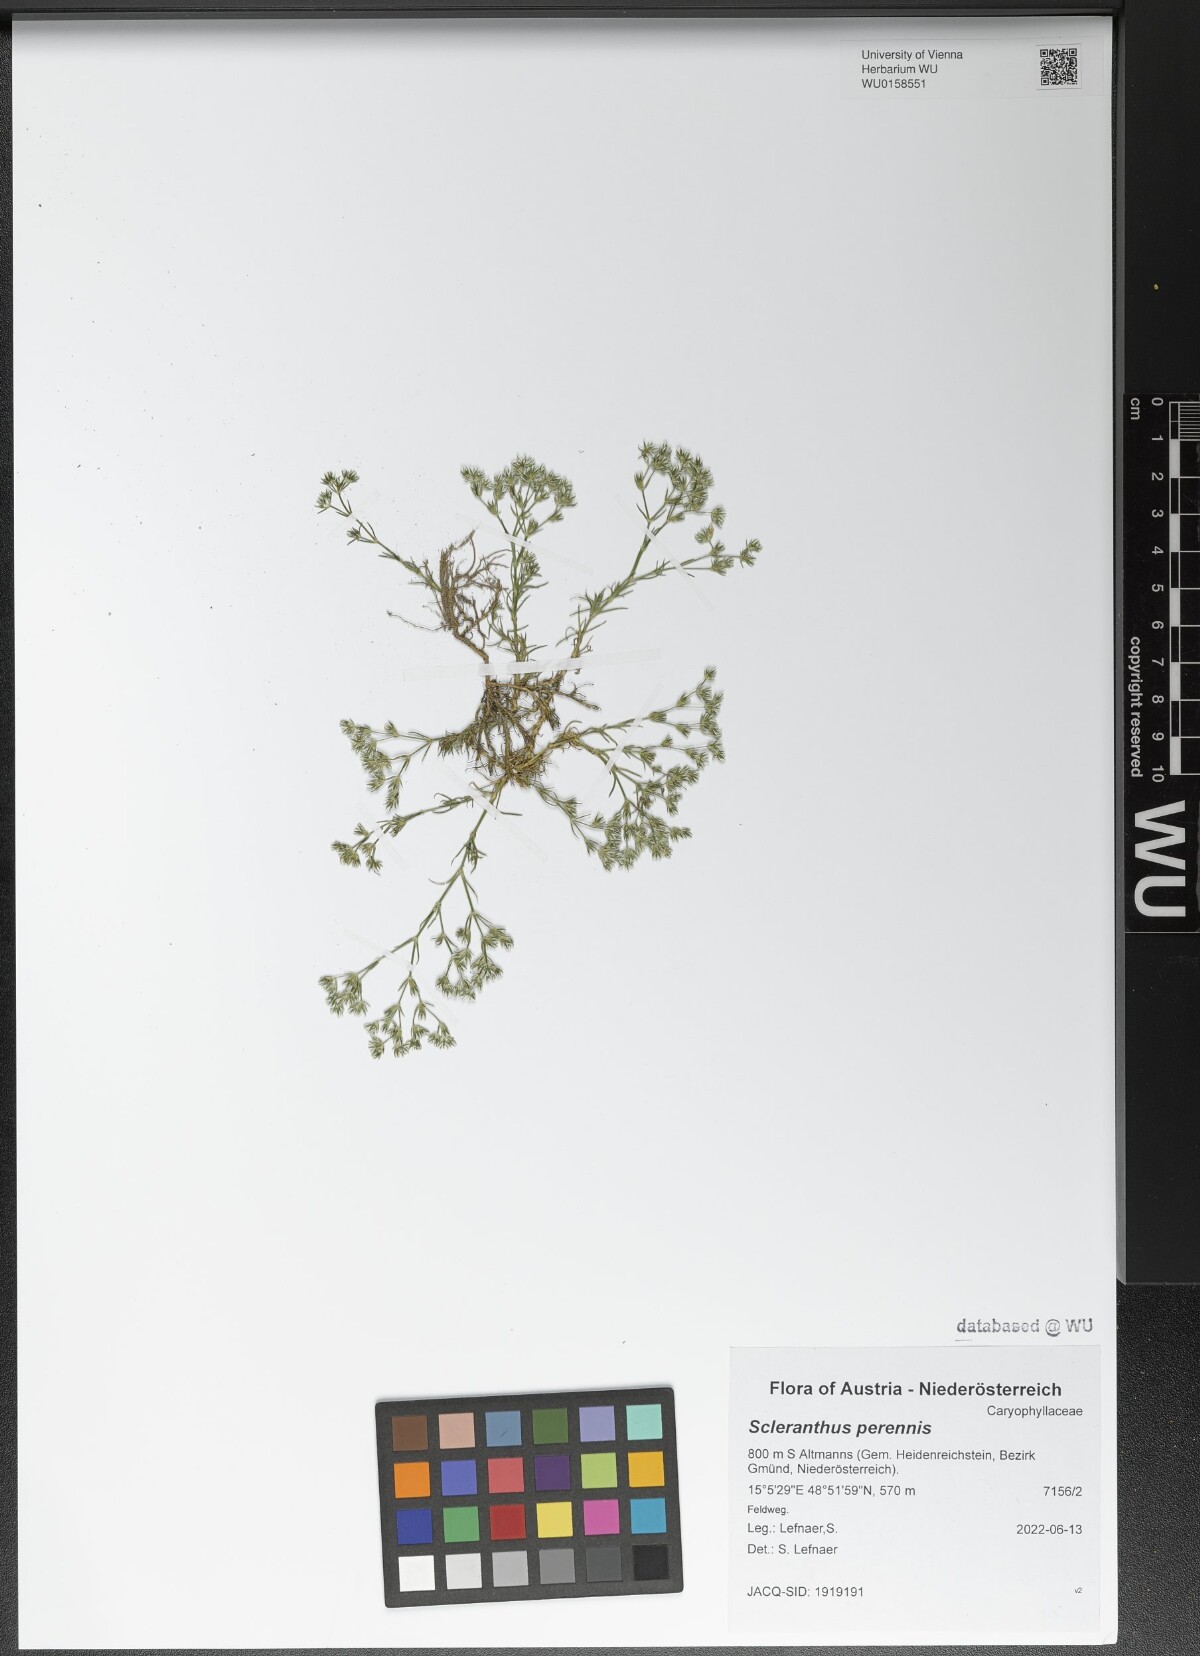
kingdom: Plantae
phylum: Tracheophyta
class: Magnoliopsida
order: Caryophyllales
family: Caryophyllaceae
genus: Scleranthus
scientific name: Scleranthus perennis
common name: Perennial knawel
